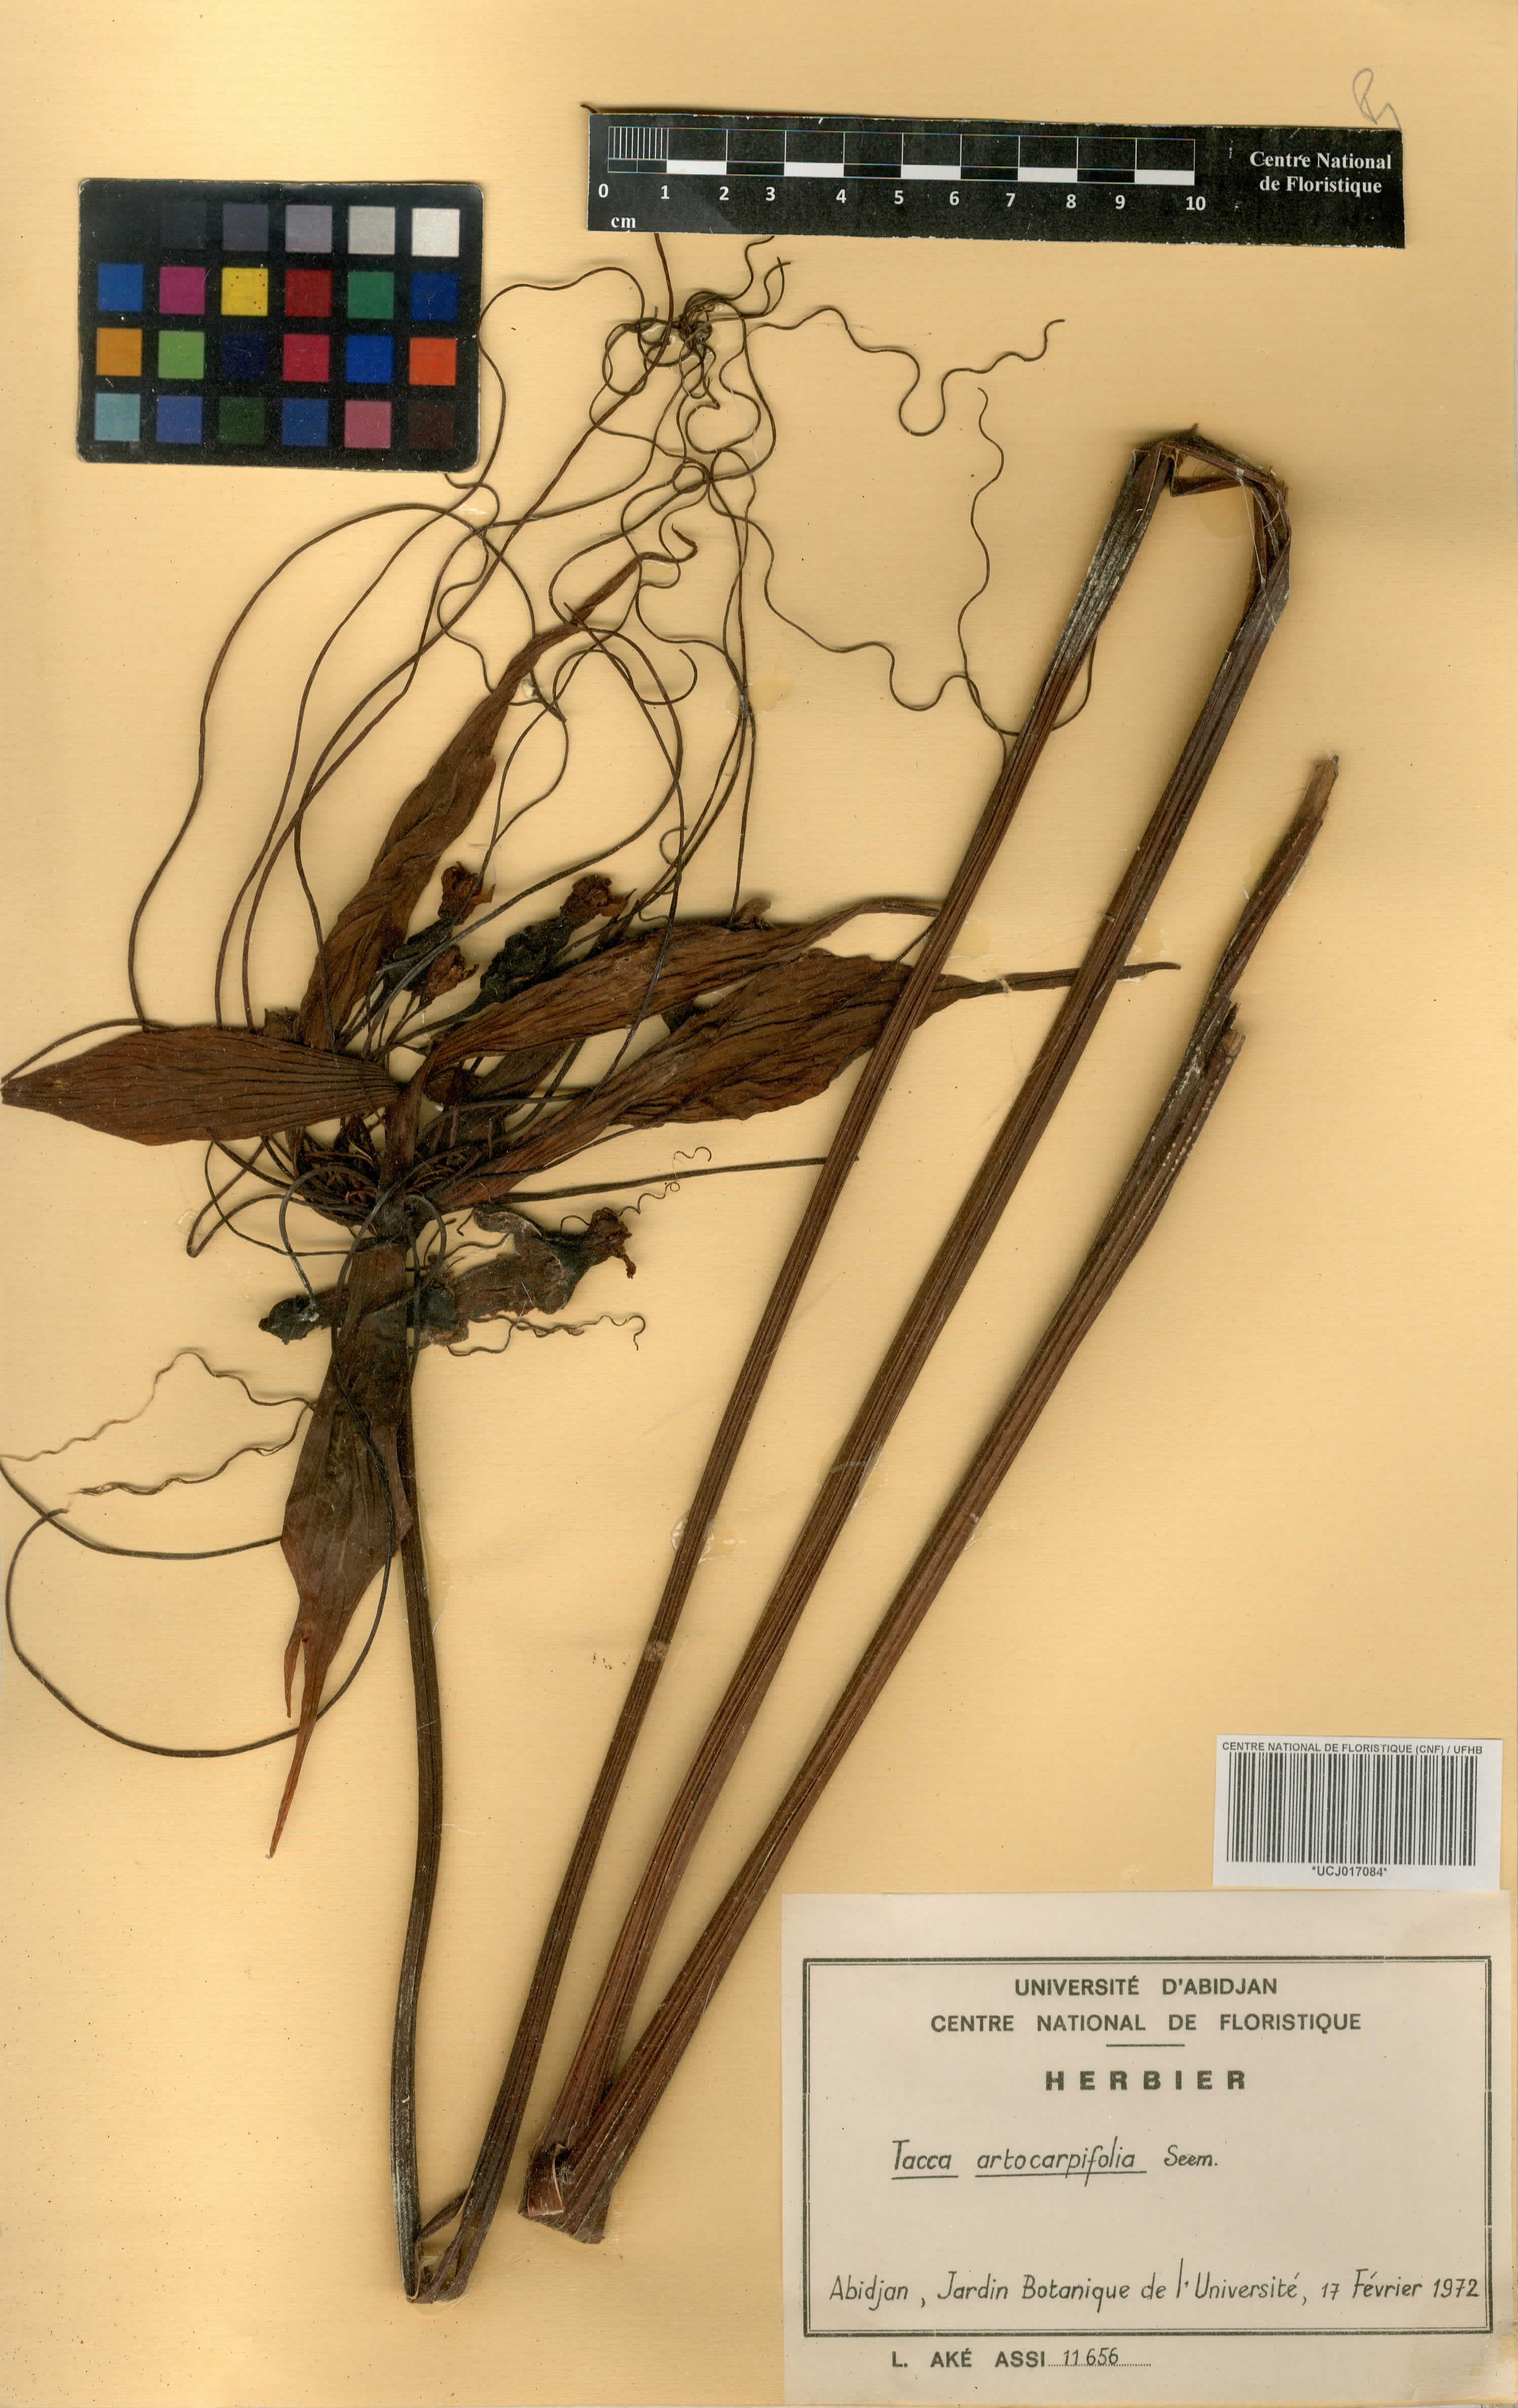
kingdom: Plantae
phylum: Tracheophyta
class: Liliopsida
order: Dioscoreales
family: Dioscoreaceae
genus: Tacca
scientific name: Tacca leontopetaloides
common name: Arrowroot
